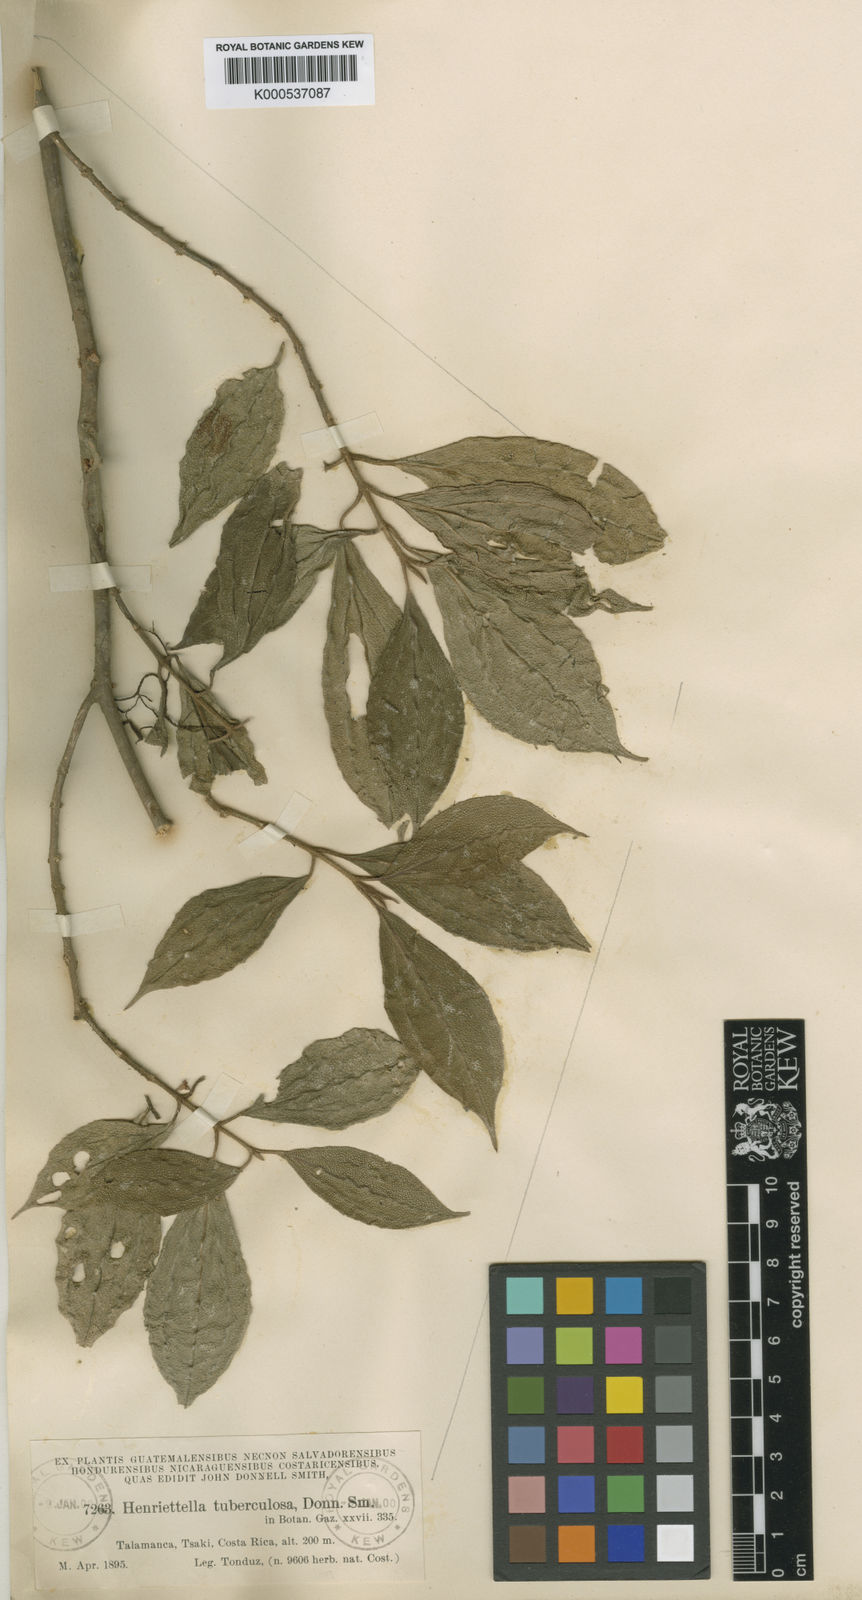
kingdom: Plantae
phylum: Tracheophyta
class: Magnoliopsida
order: Myrtales
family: Melastomataceae
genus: Henriettea
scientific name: Henriettea tuberculosa
